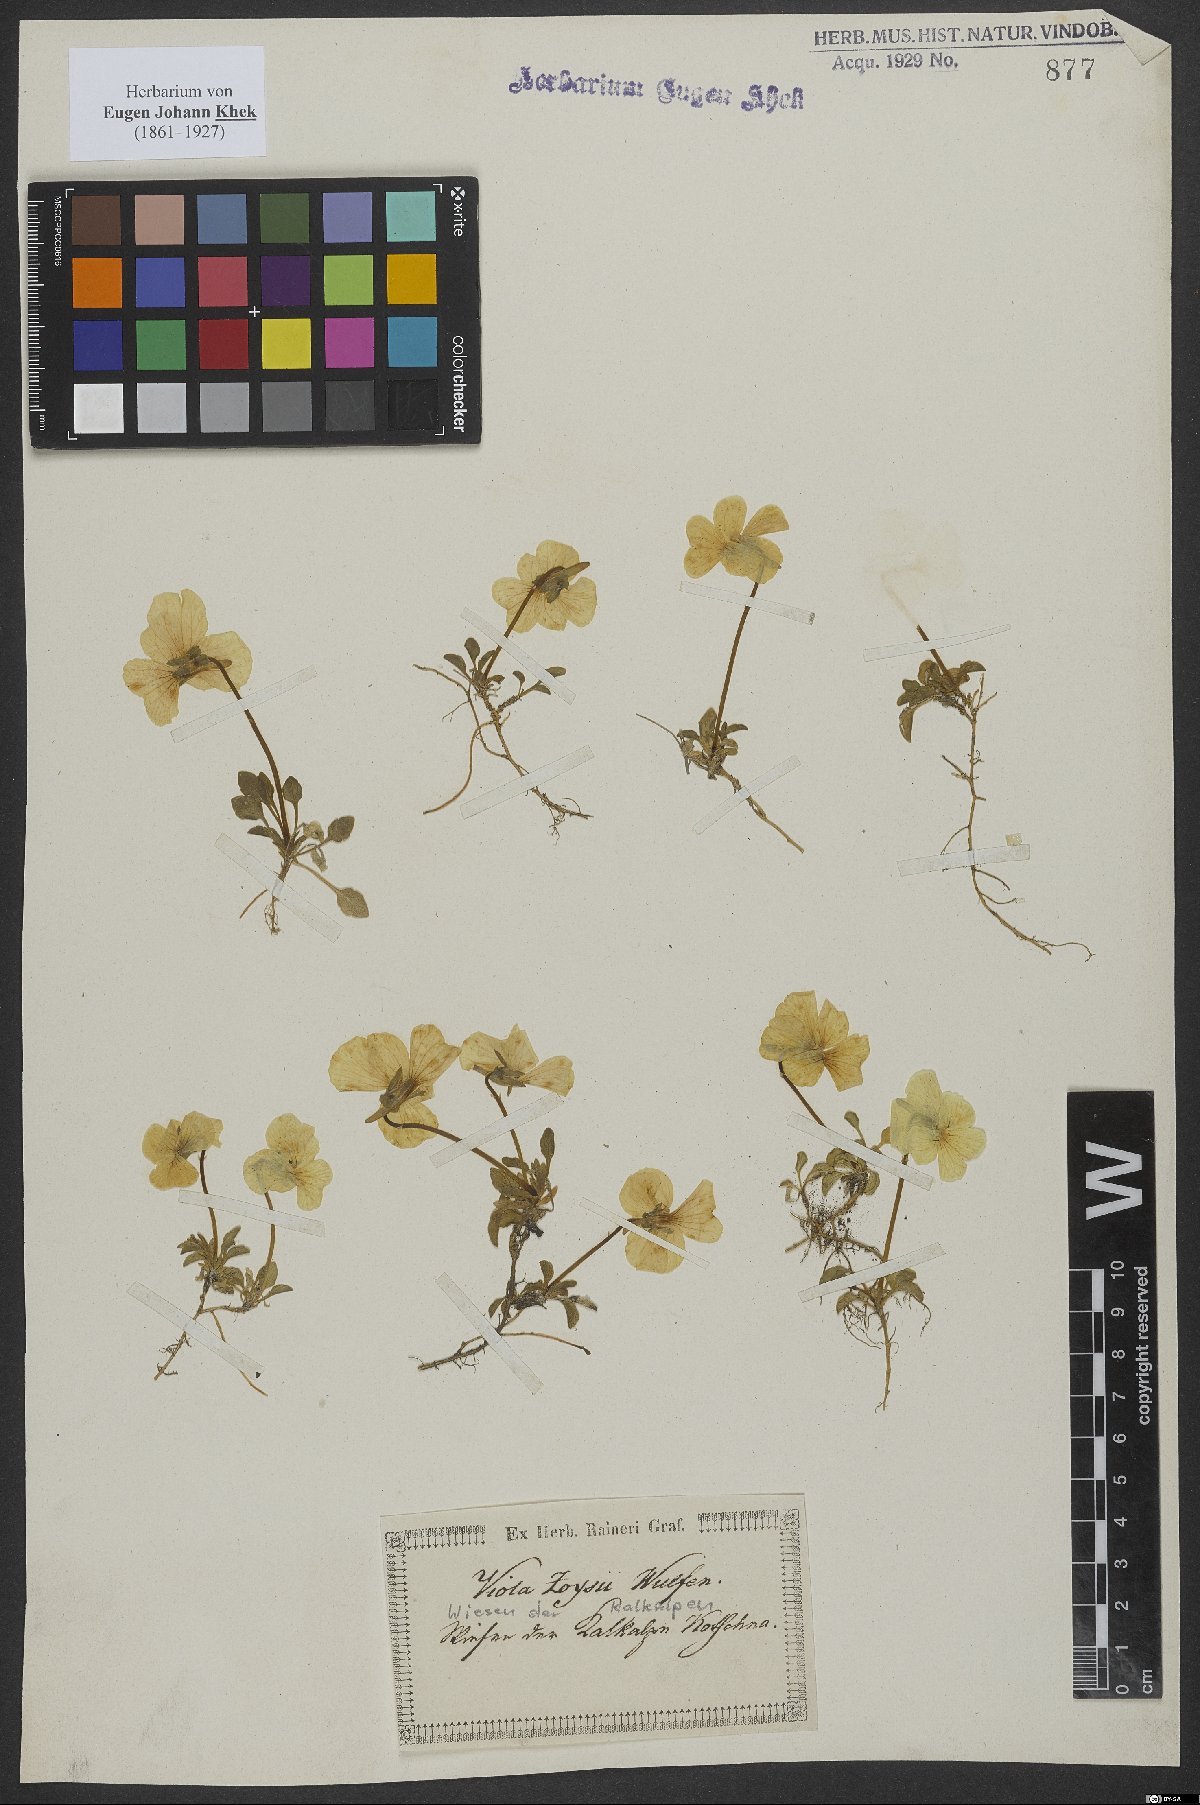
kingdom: Plantae
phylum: Tracheophyta
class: Magnoliopsida
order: Malpighiales
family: Violaceae
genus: Viola
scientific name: Viola calcarata
